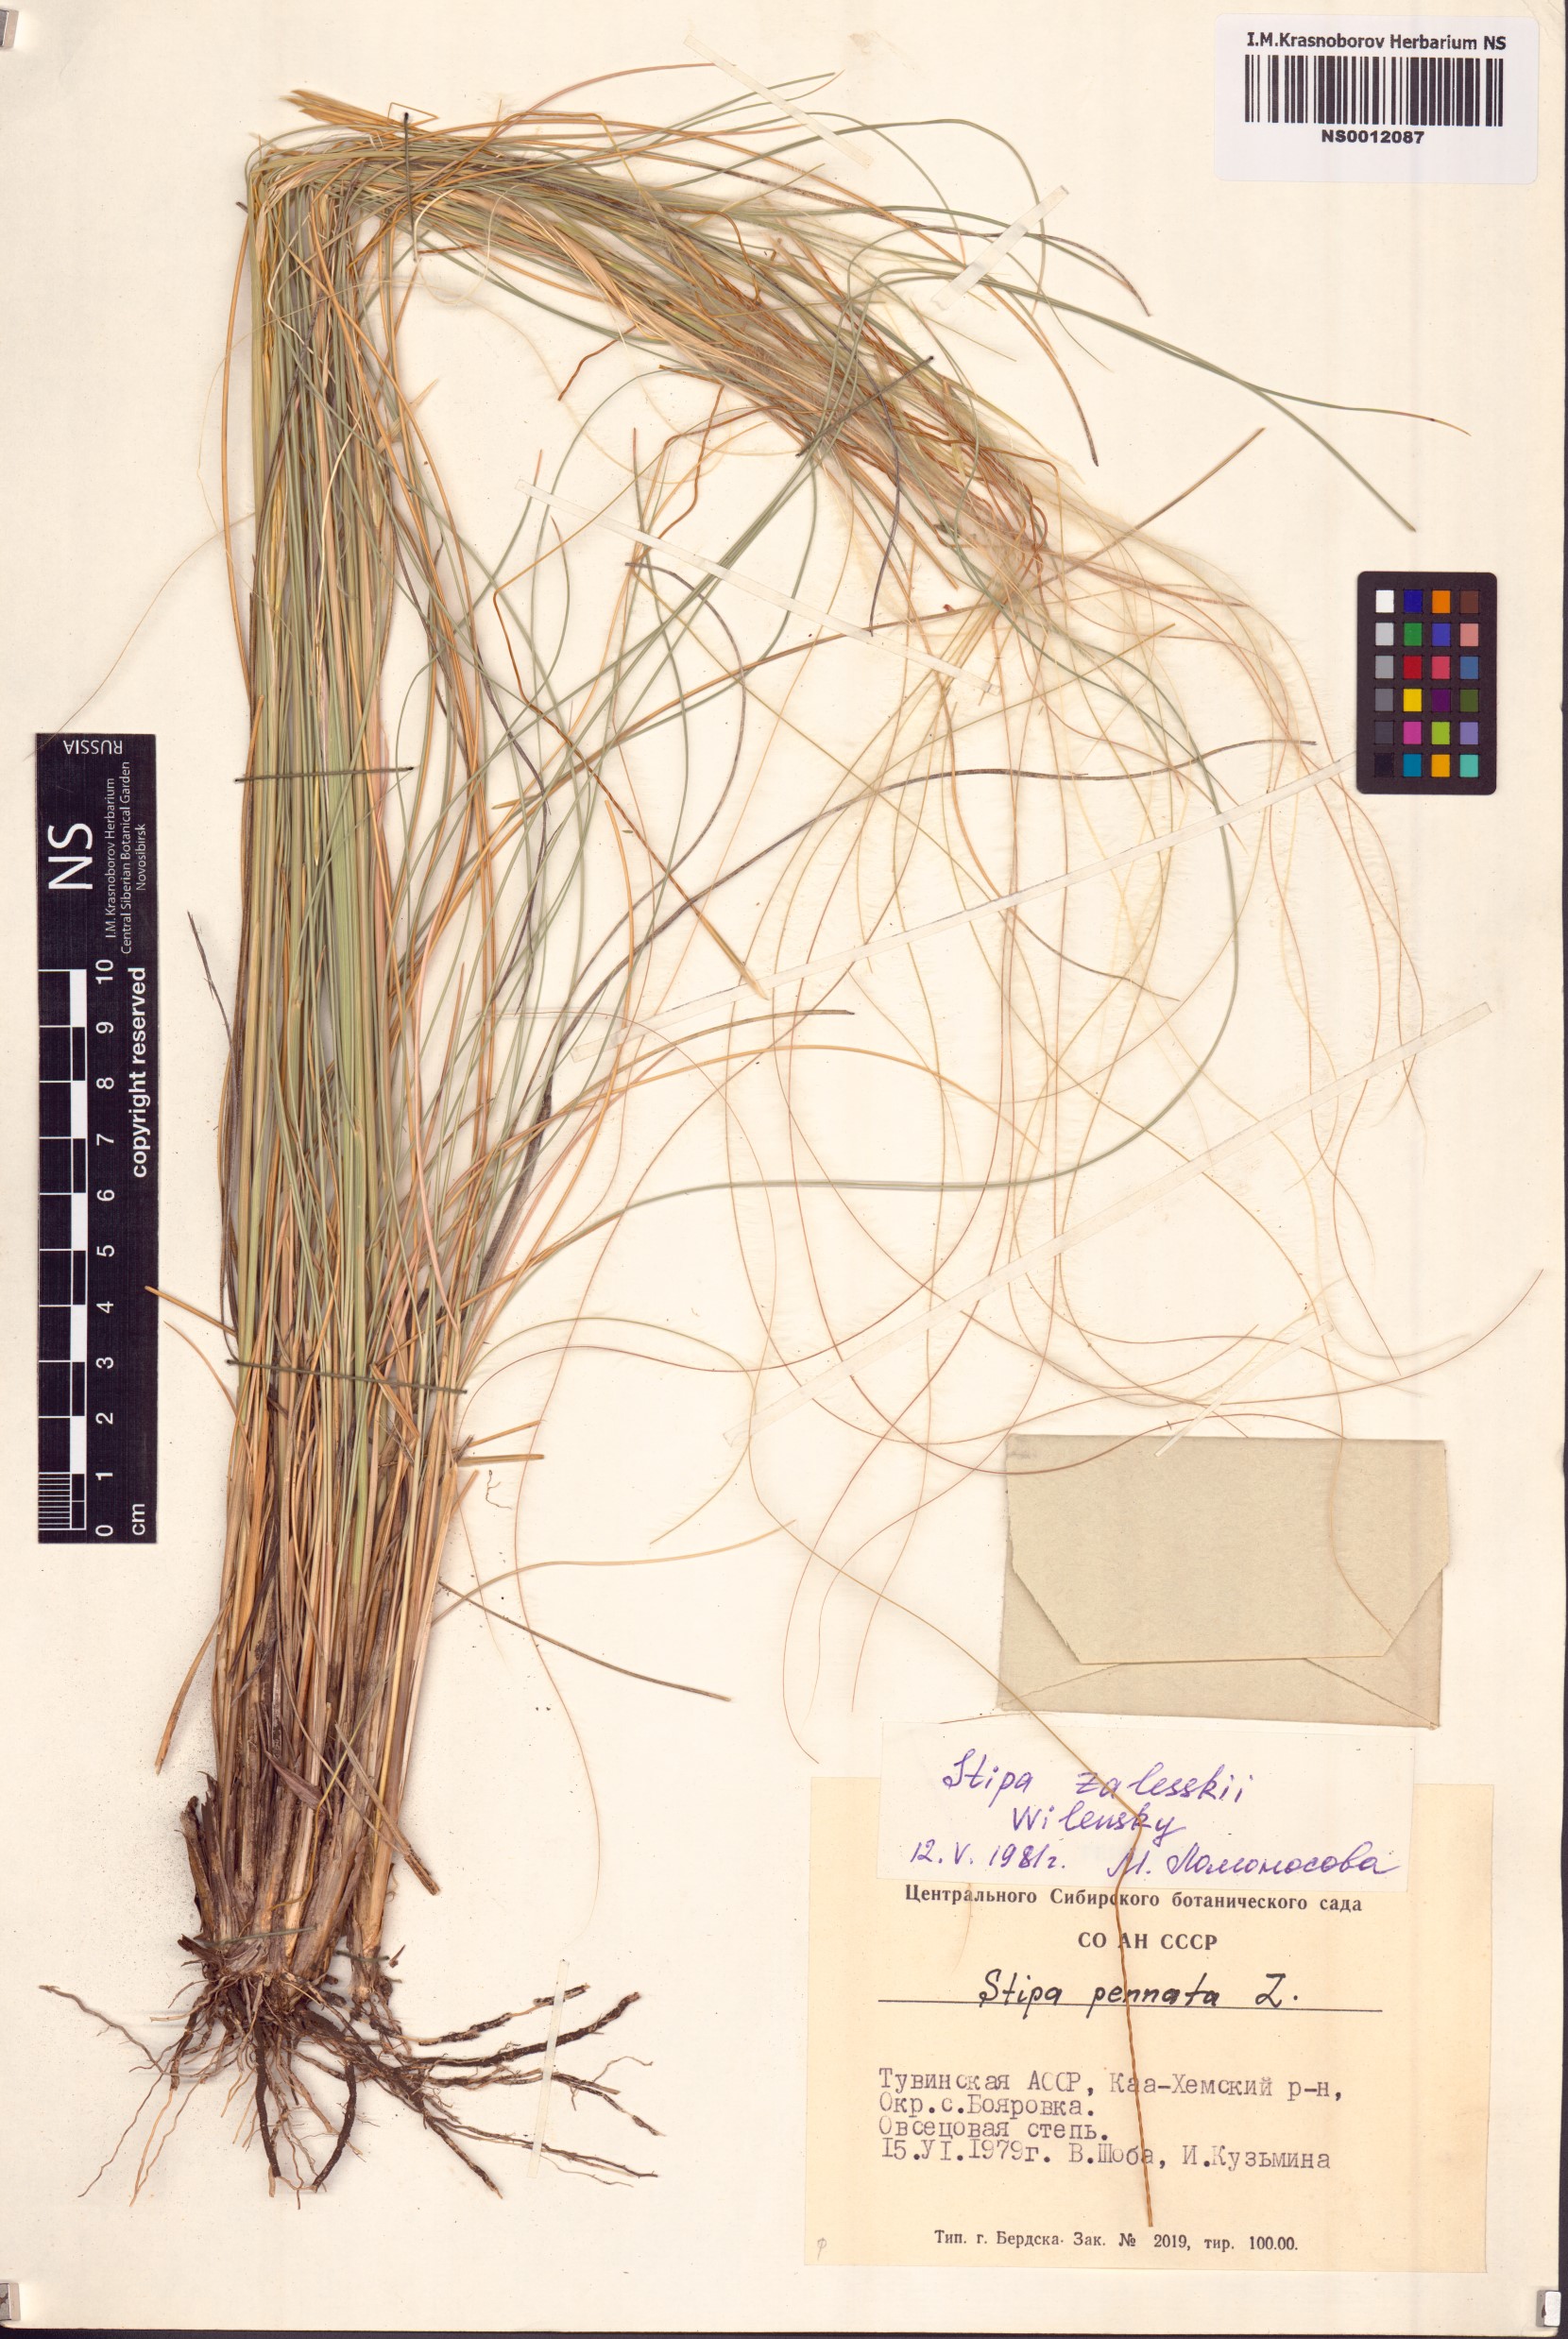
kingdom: Plantae
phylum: Tracheophyta
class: Liliopsida
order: Poales
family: Poaceae
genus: Stipa
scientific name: Stipa zalesskii
